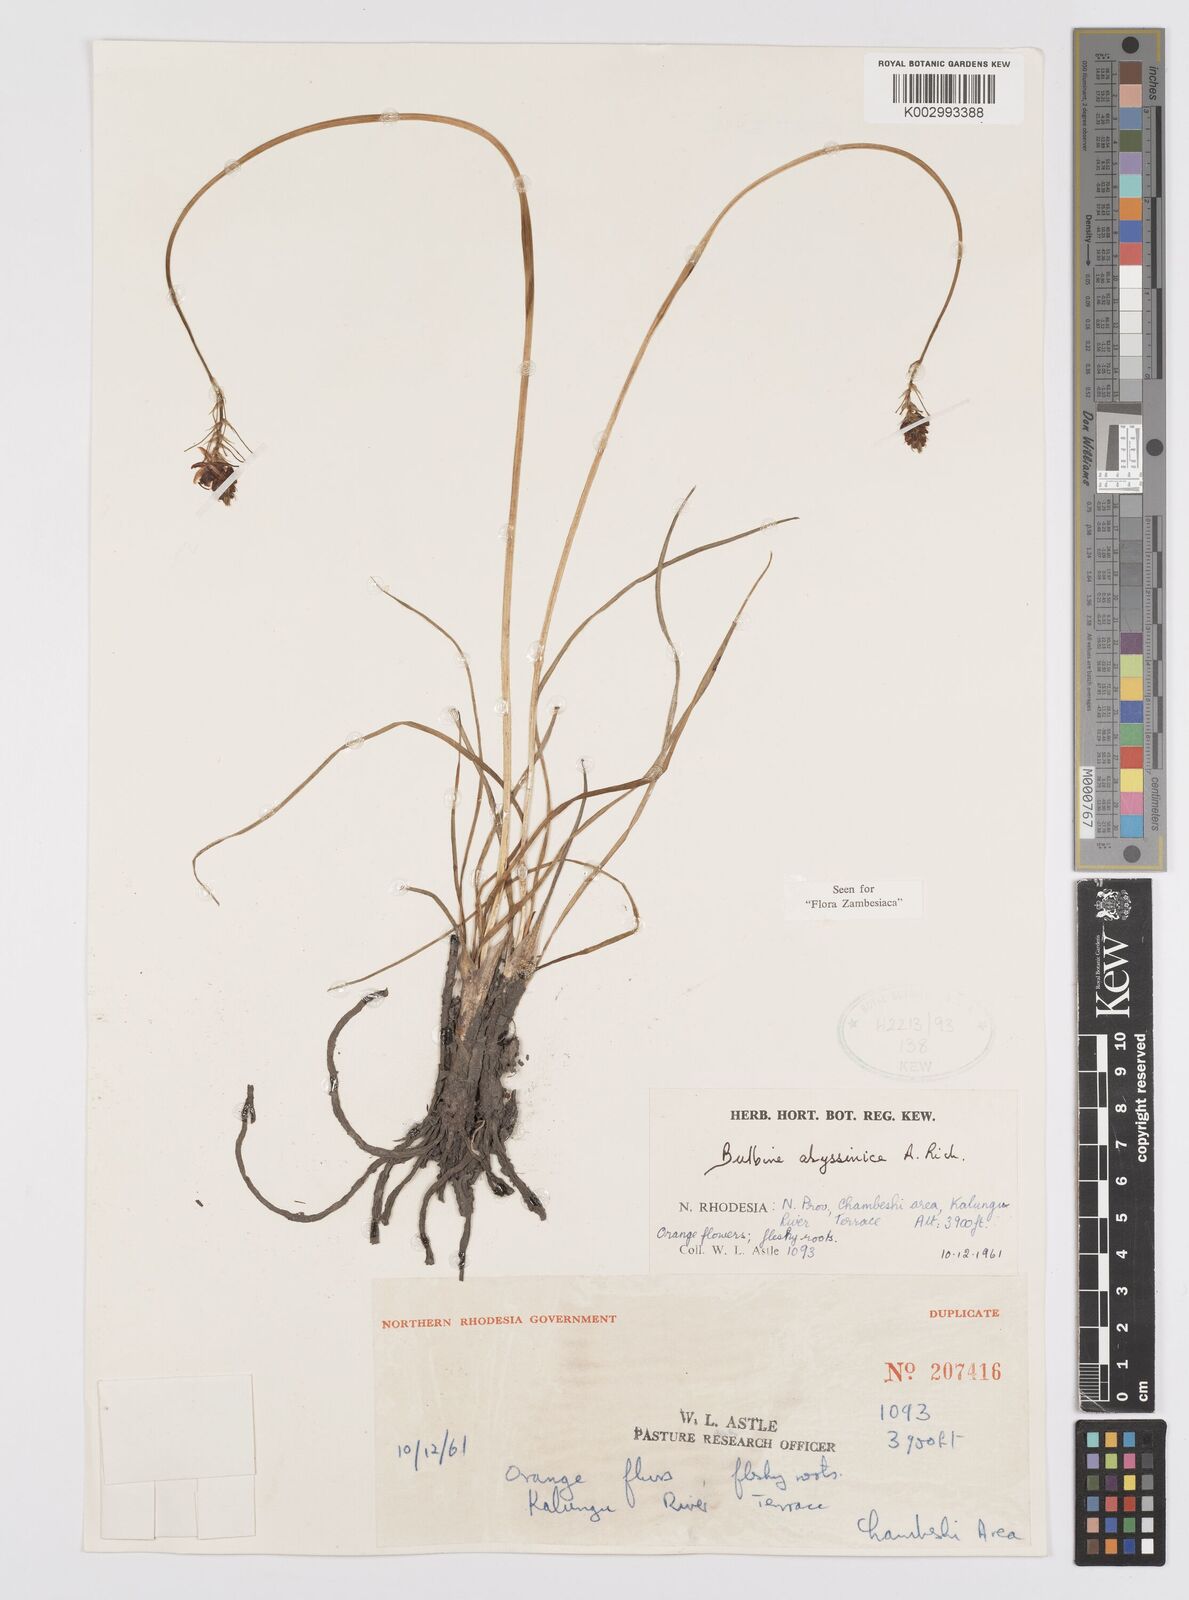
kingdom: Plantae
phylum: Tracheophyta
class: Liliopsida
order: Asparagales
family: Asphodelaceae
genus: Bulbine
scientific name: Bulbine abyssinica
